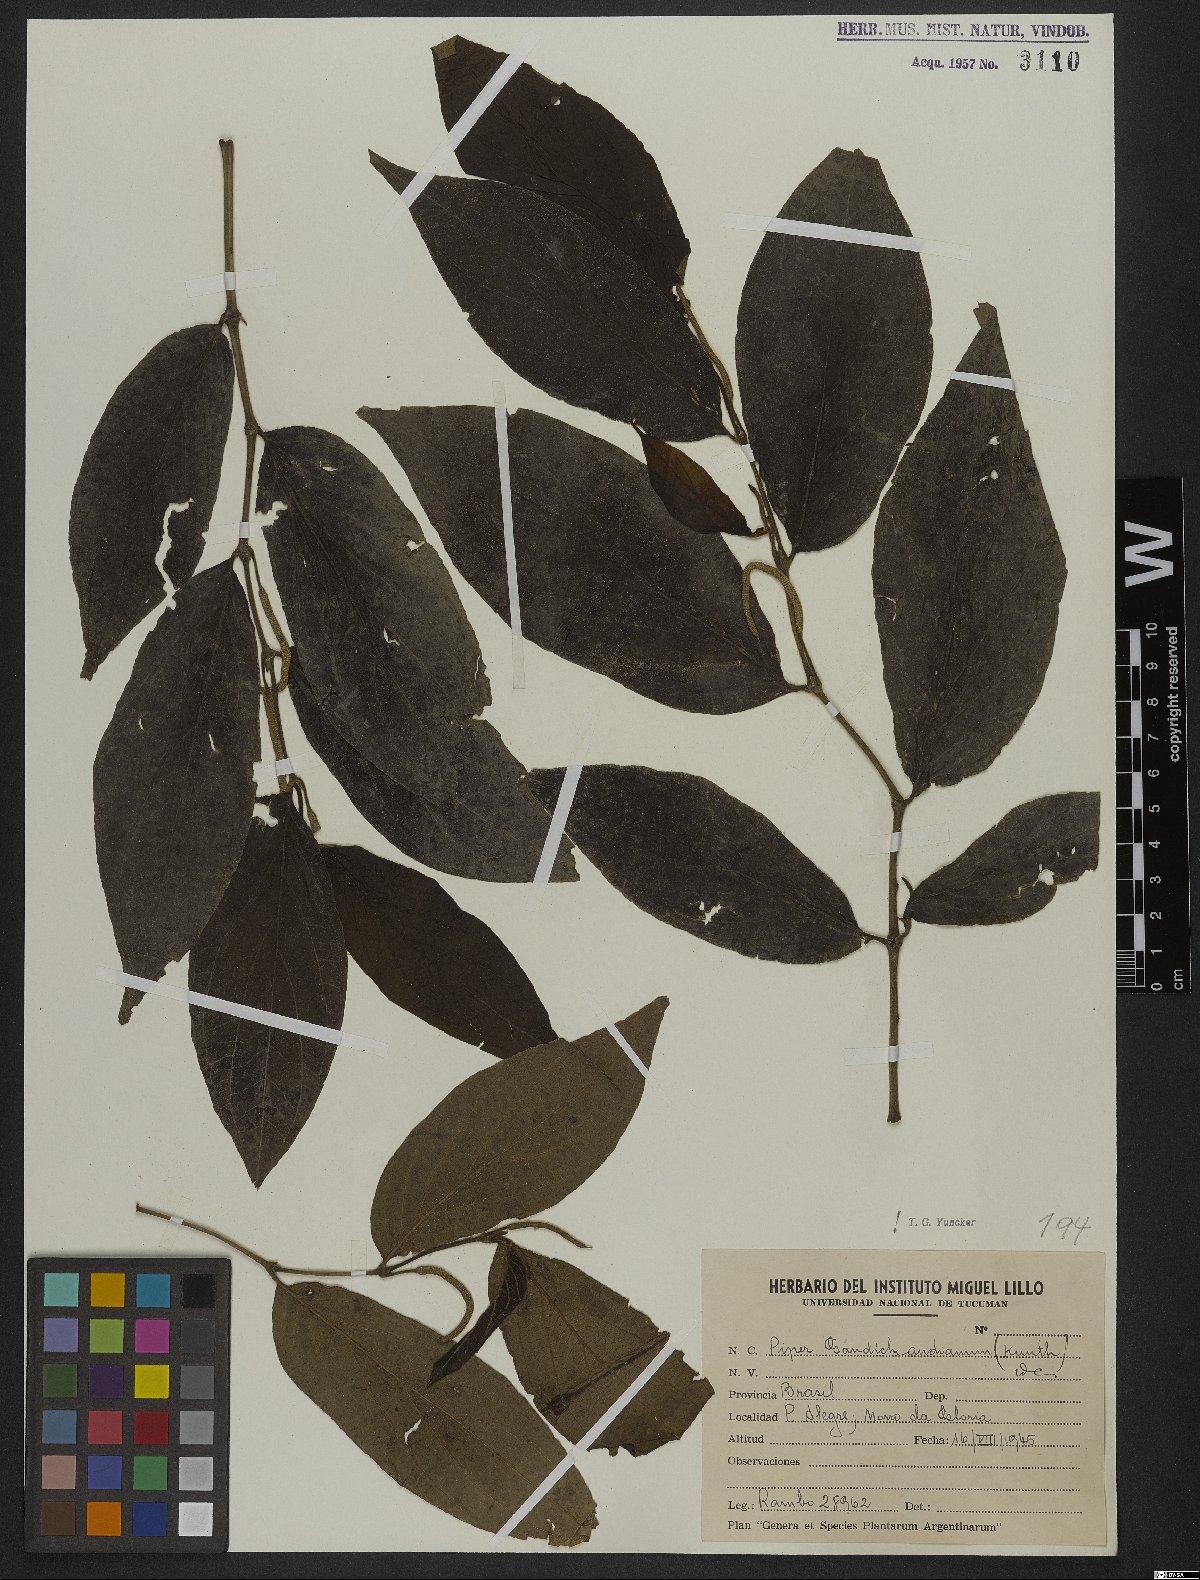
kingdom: Plantae
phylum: Tracheophyta
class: Magnoliopsida
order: Piperales
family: Piperaceae
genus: Piper
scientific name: Piper gaudichaudianum
